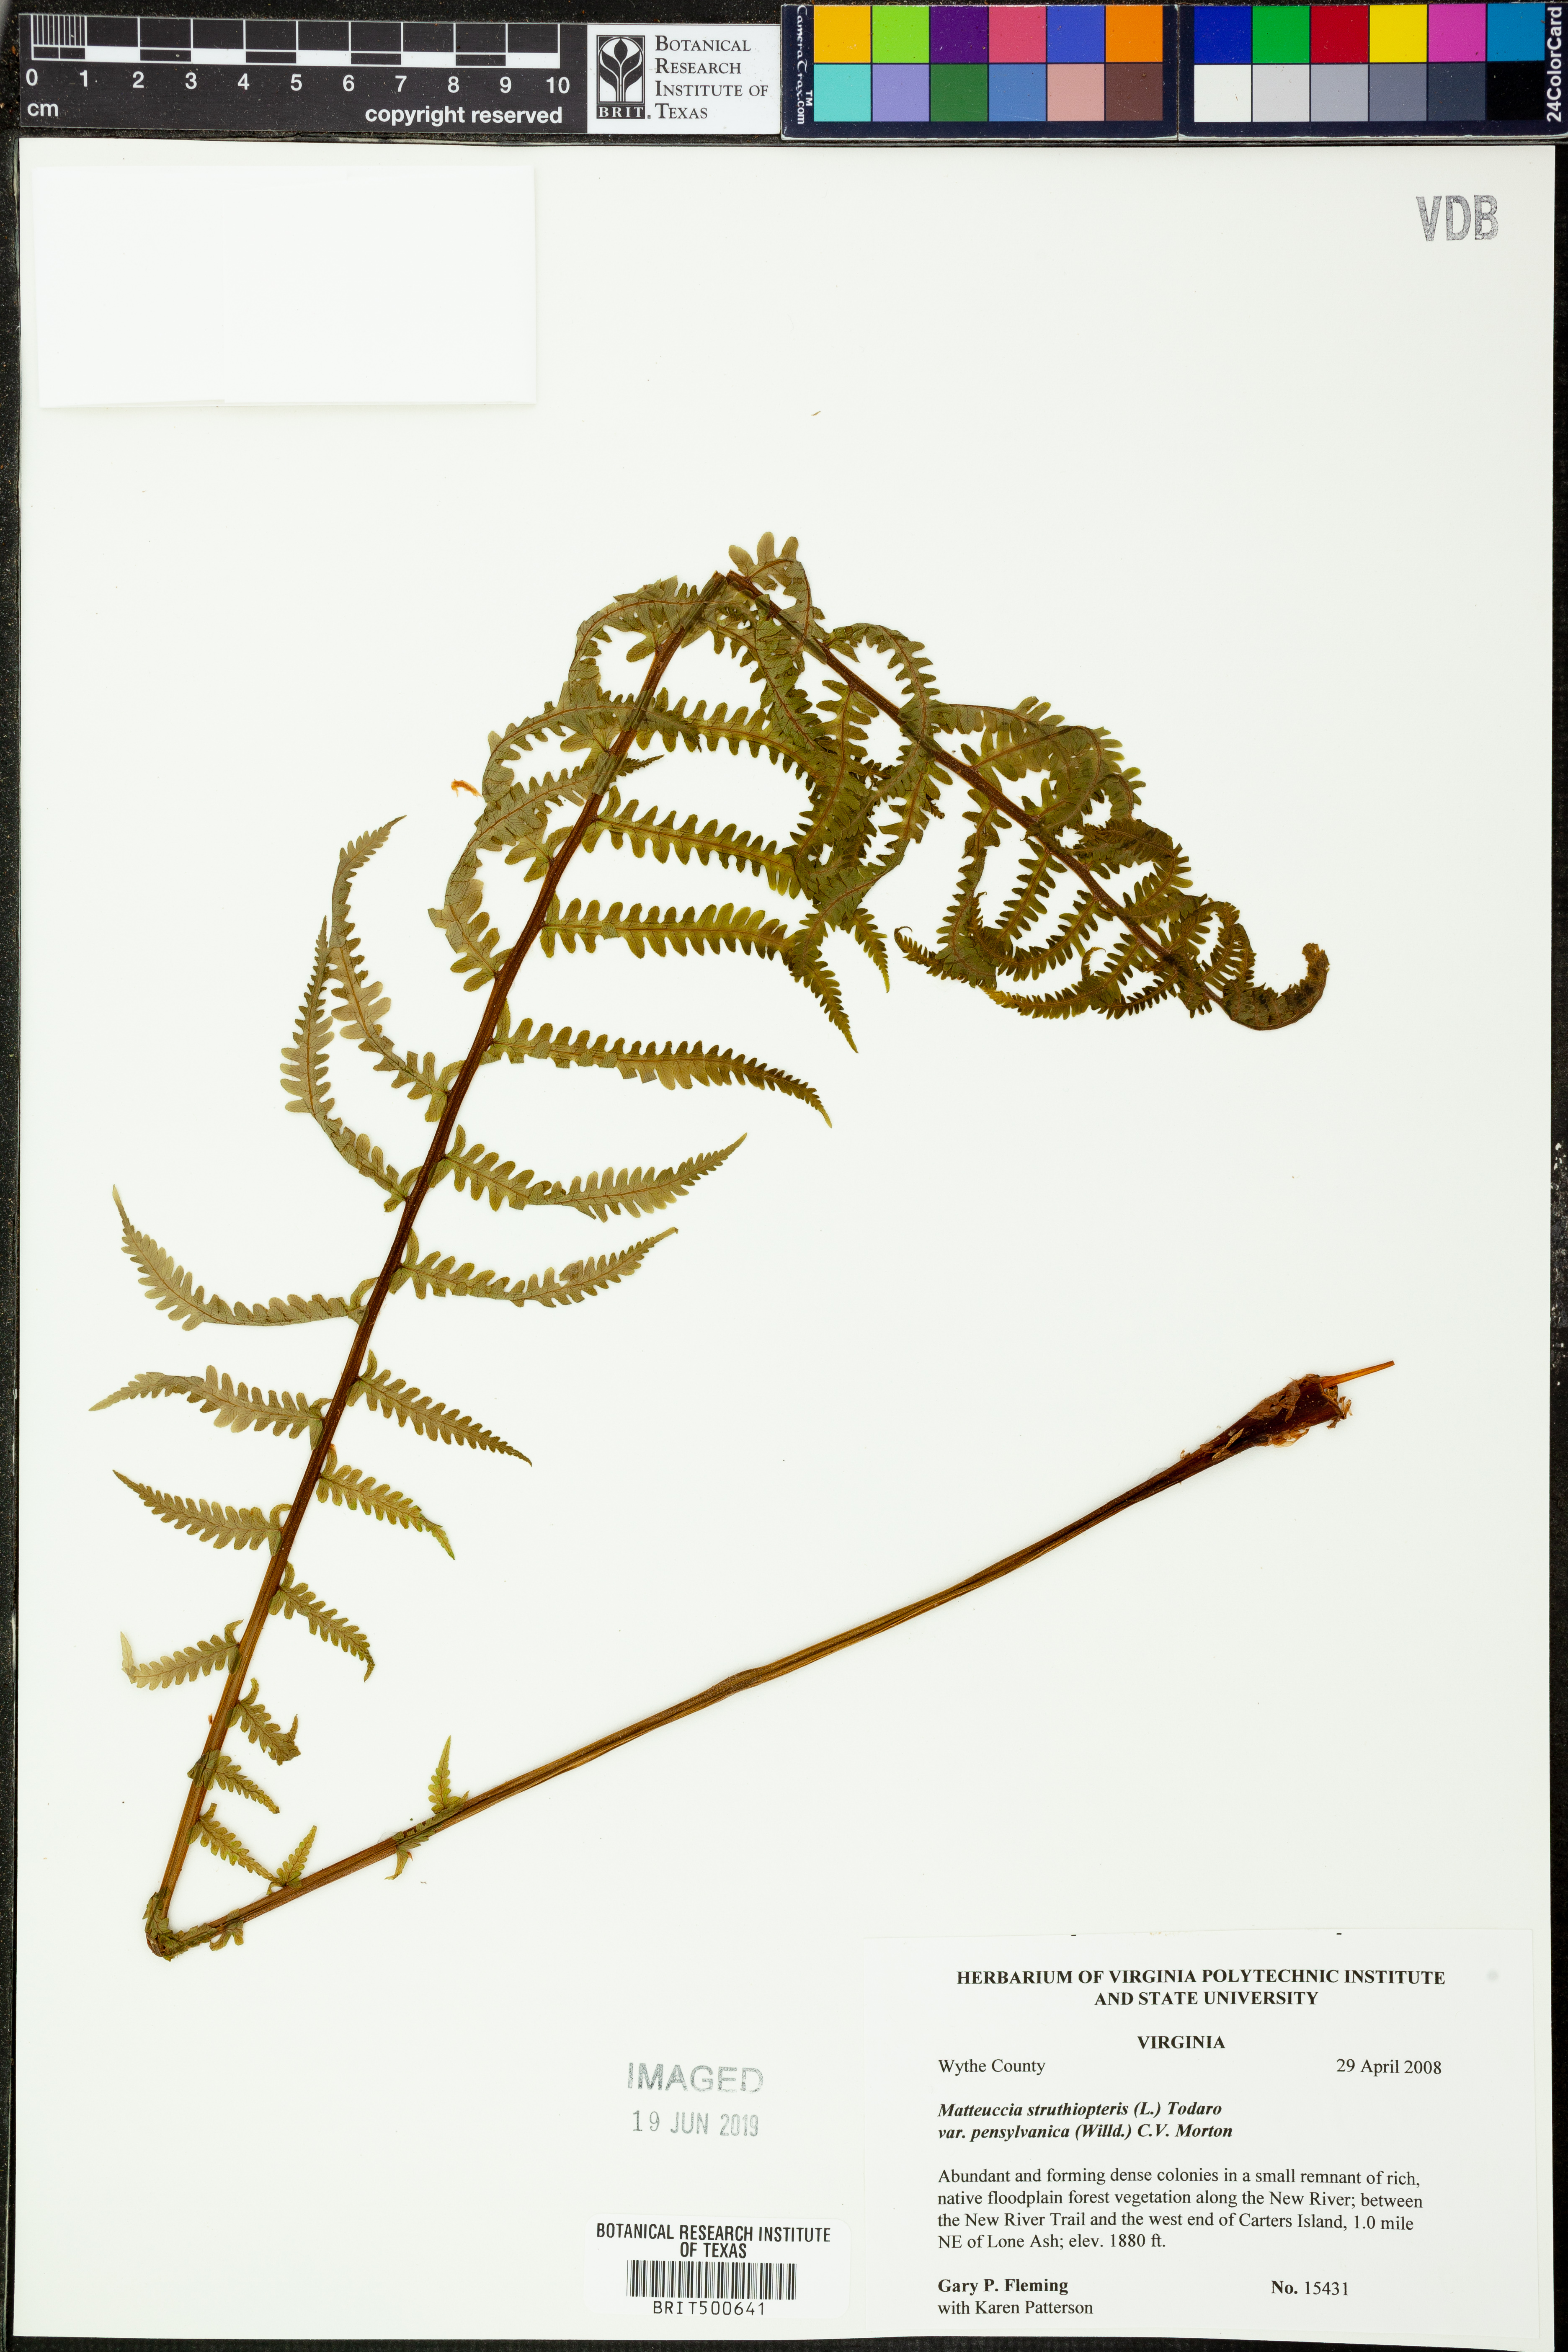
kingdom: Plantae
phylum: Tracheophyta
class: Polypodiopsida
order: Polypodiales
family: Onocleaceae
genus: Matteuccia
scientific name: Matteuccia pensylvanica
